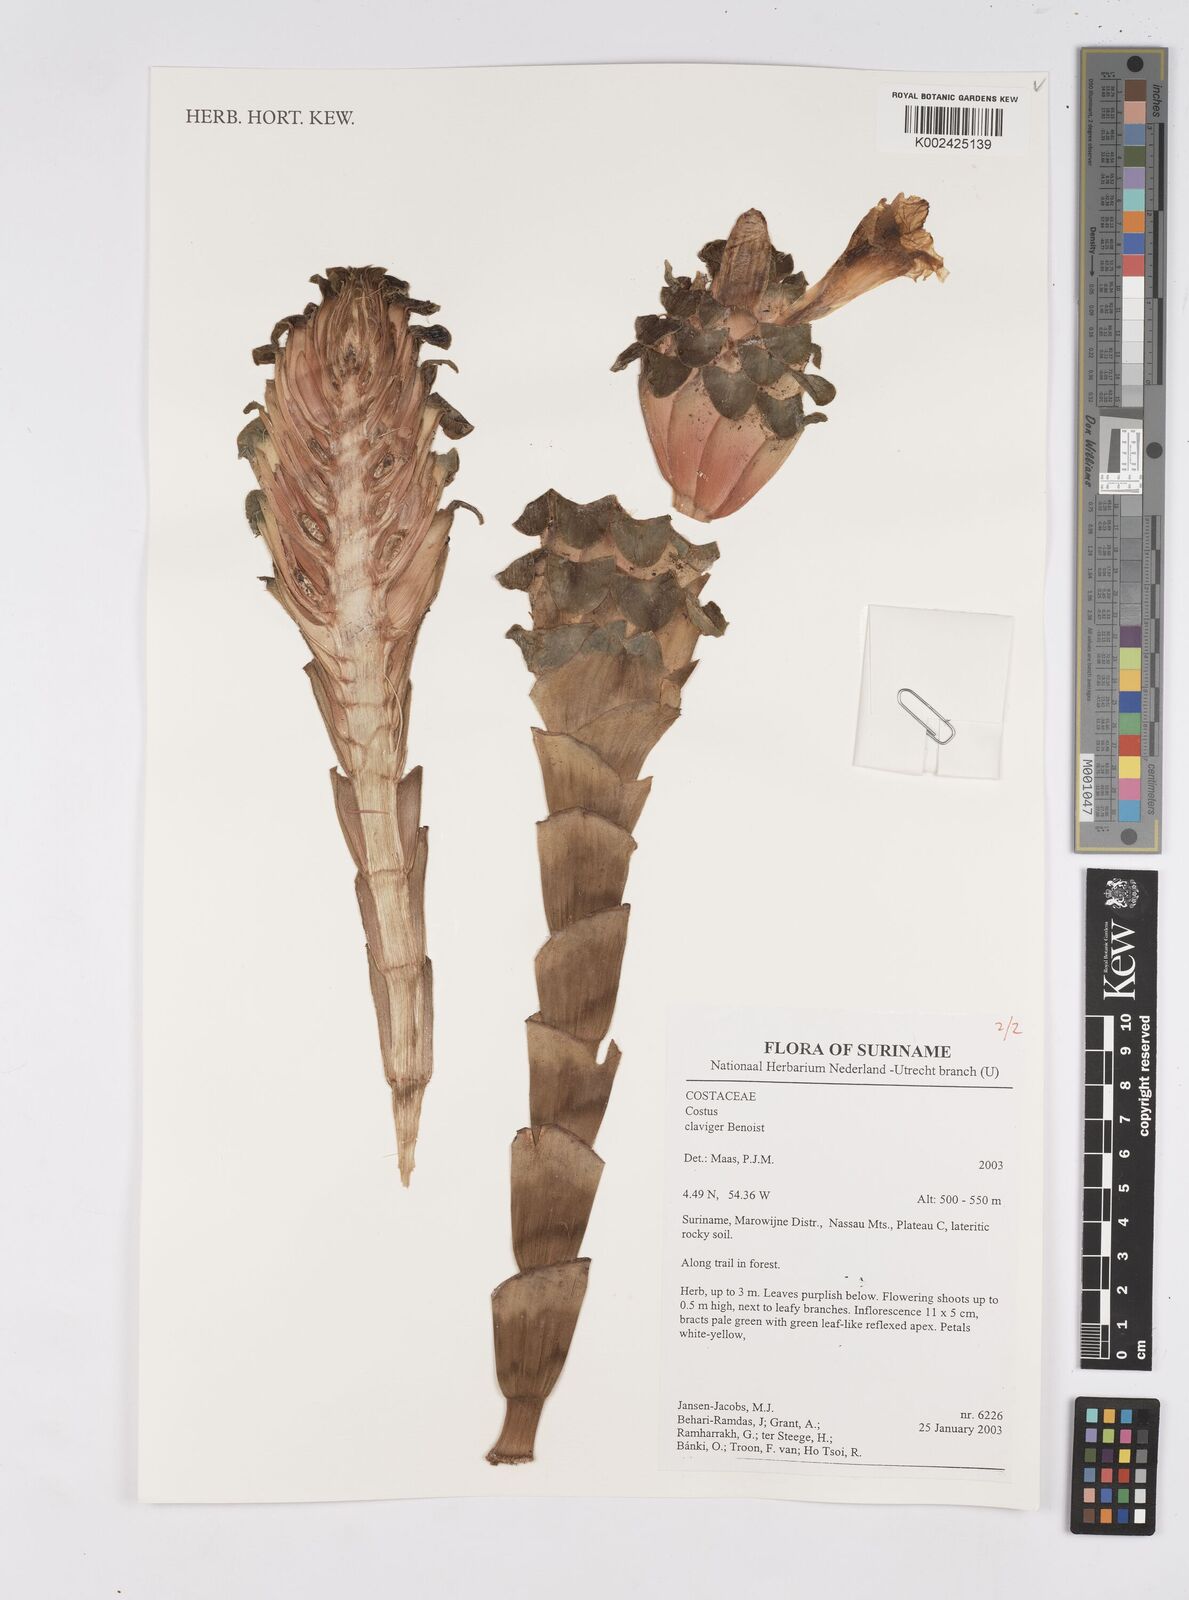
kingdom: Plantae
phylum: Tracheophyta
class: Liliopsida
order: Zingiberales
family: Costaceae
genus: Costus
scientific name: Costus claviger
